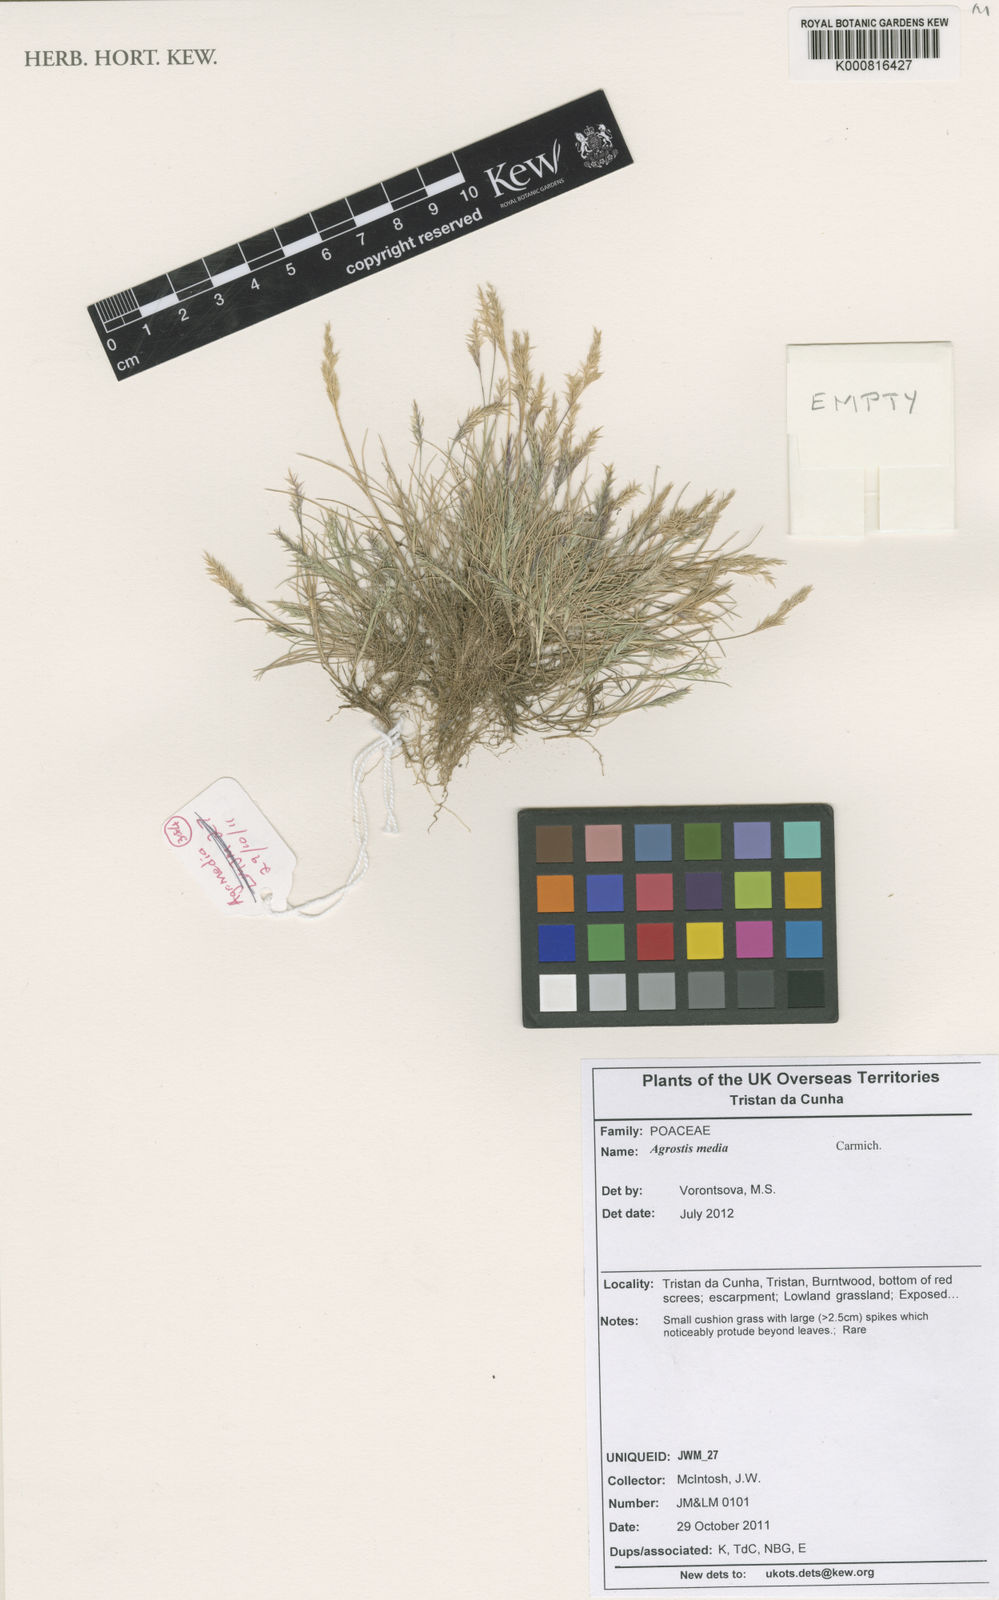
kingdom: Plantae
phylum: Tracheophyta
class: Liliopsida
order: Poales
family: Poaceae
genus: Agrostis
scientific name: Agrostis media
